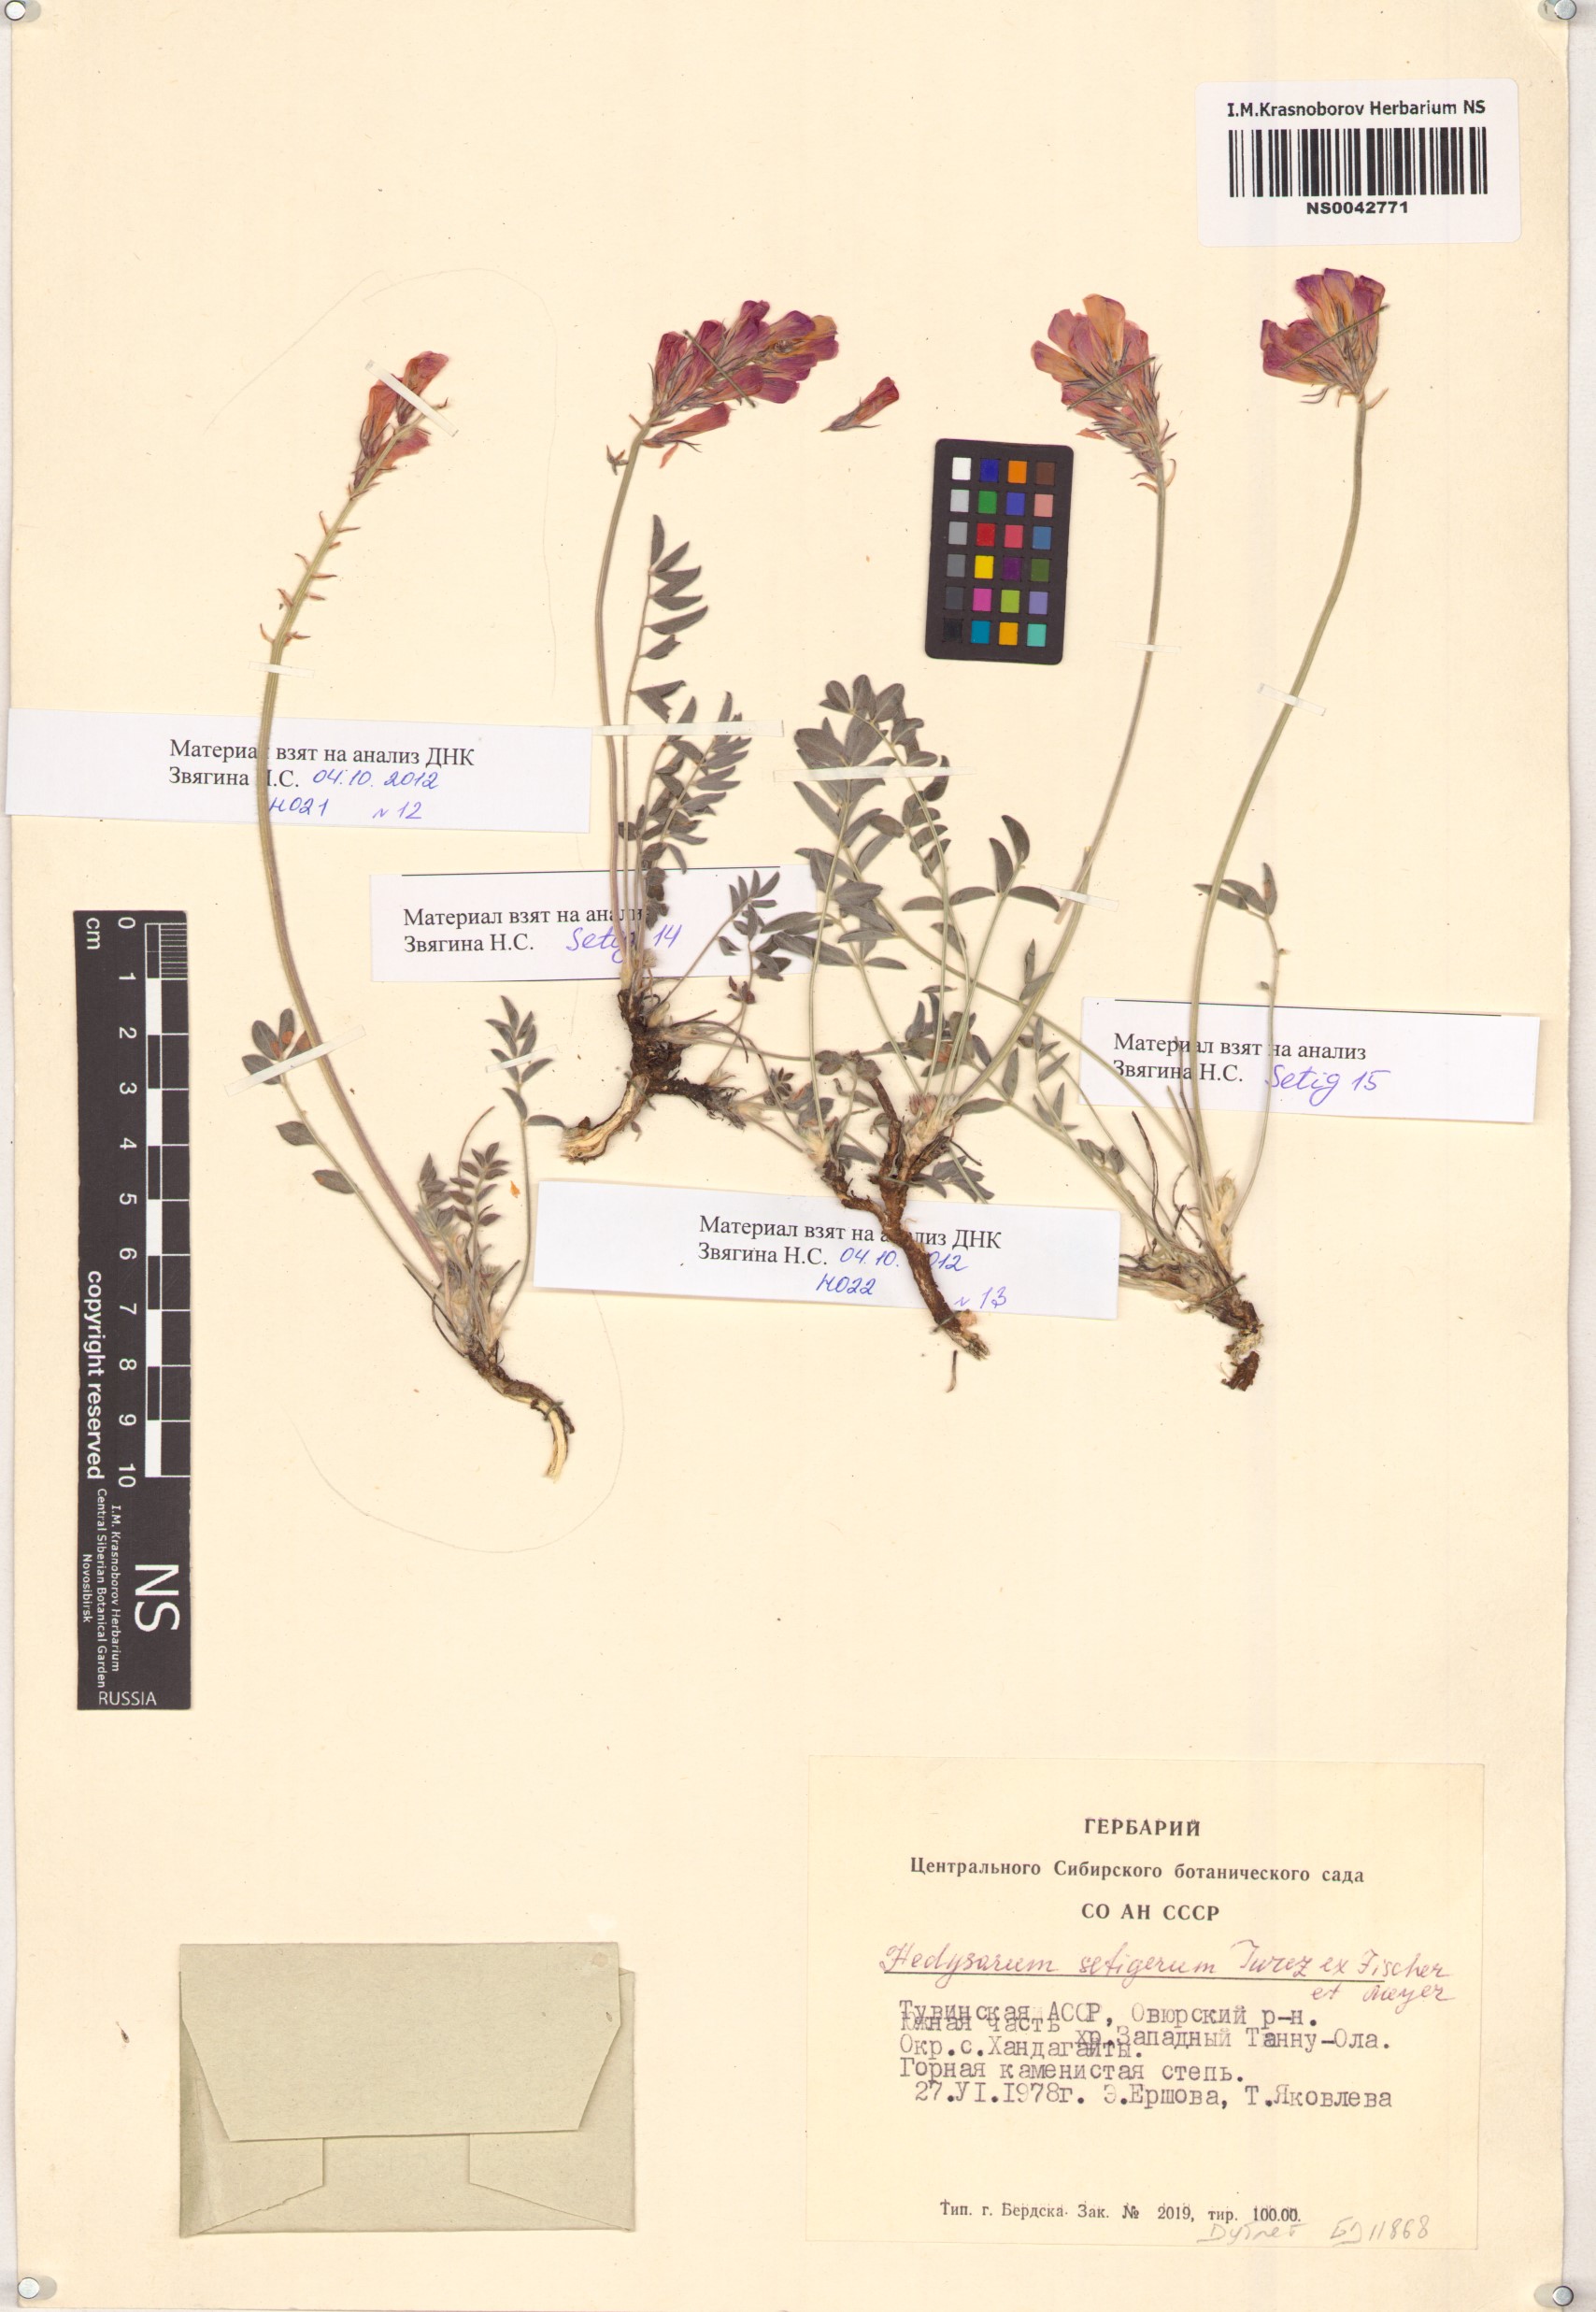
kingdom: Plantae
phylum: Tracheophyta
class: Magnoliopsida
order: Fabales
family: Fabaceae
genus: Hedysarum
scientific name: Hedysarum setigerum
